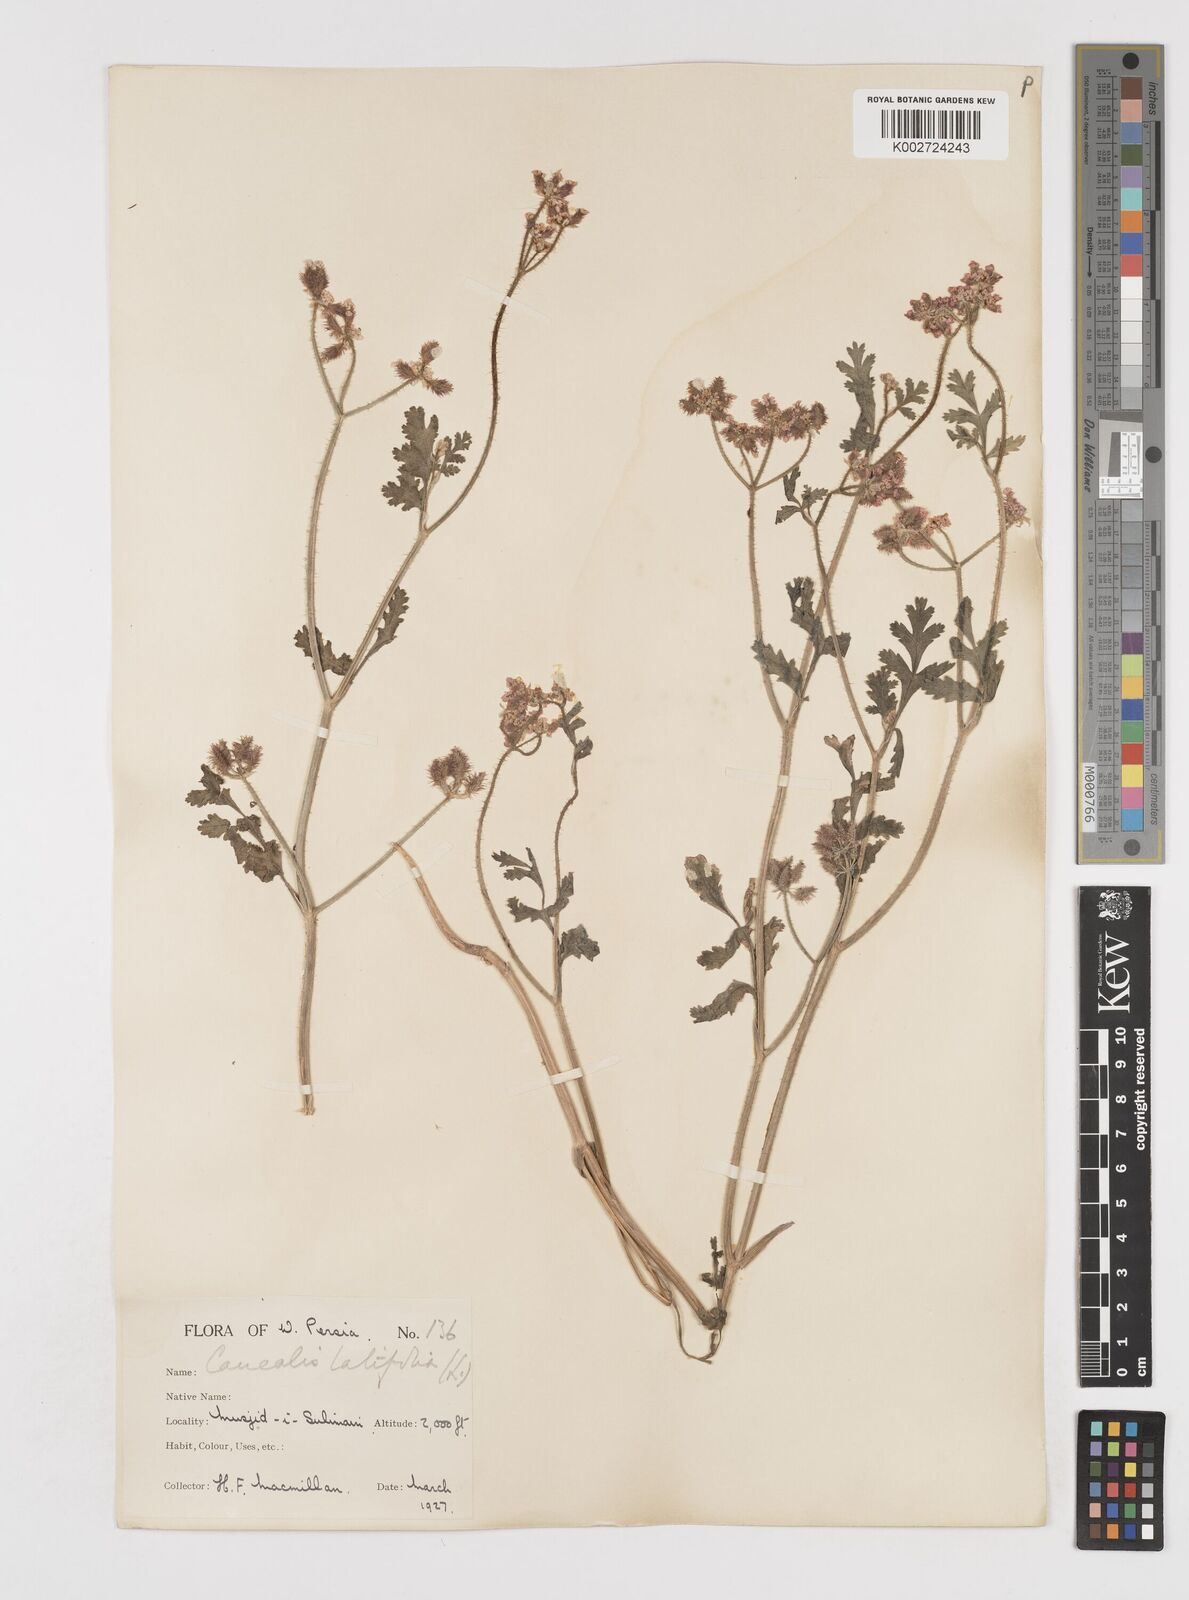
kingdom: Plantae
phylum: Tracheophyta
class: Magnoliopsida
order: Apiales
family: Apiaceae
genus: Turgenia
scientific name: Turgenia latifolia
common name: Greater bur-parsley
